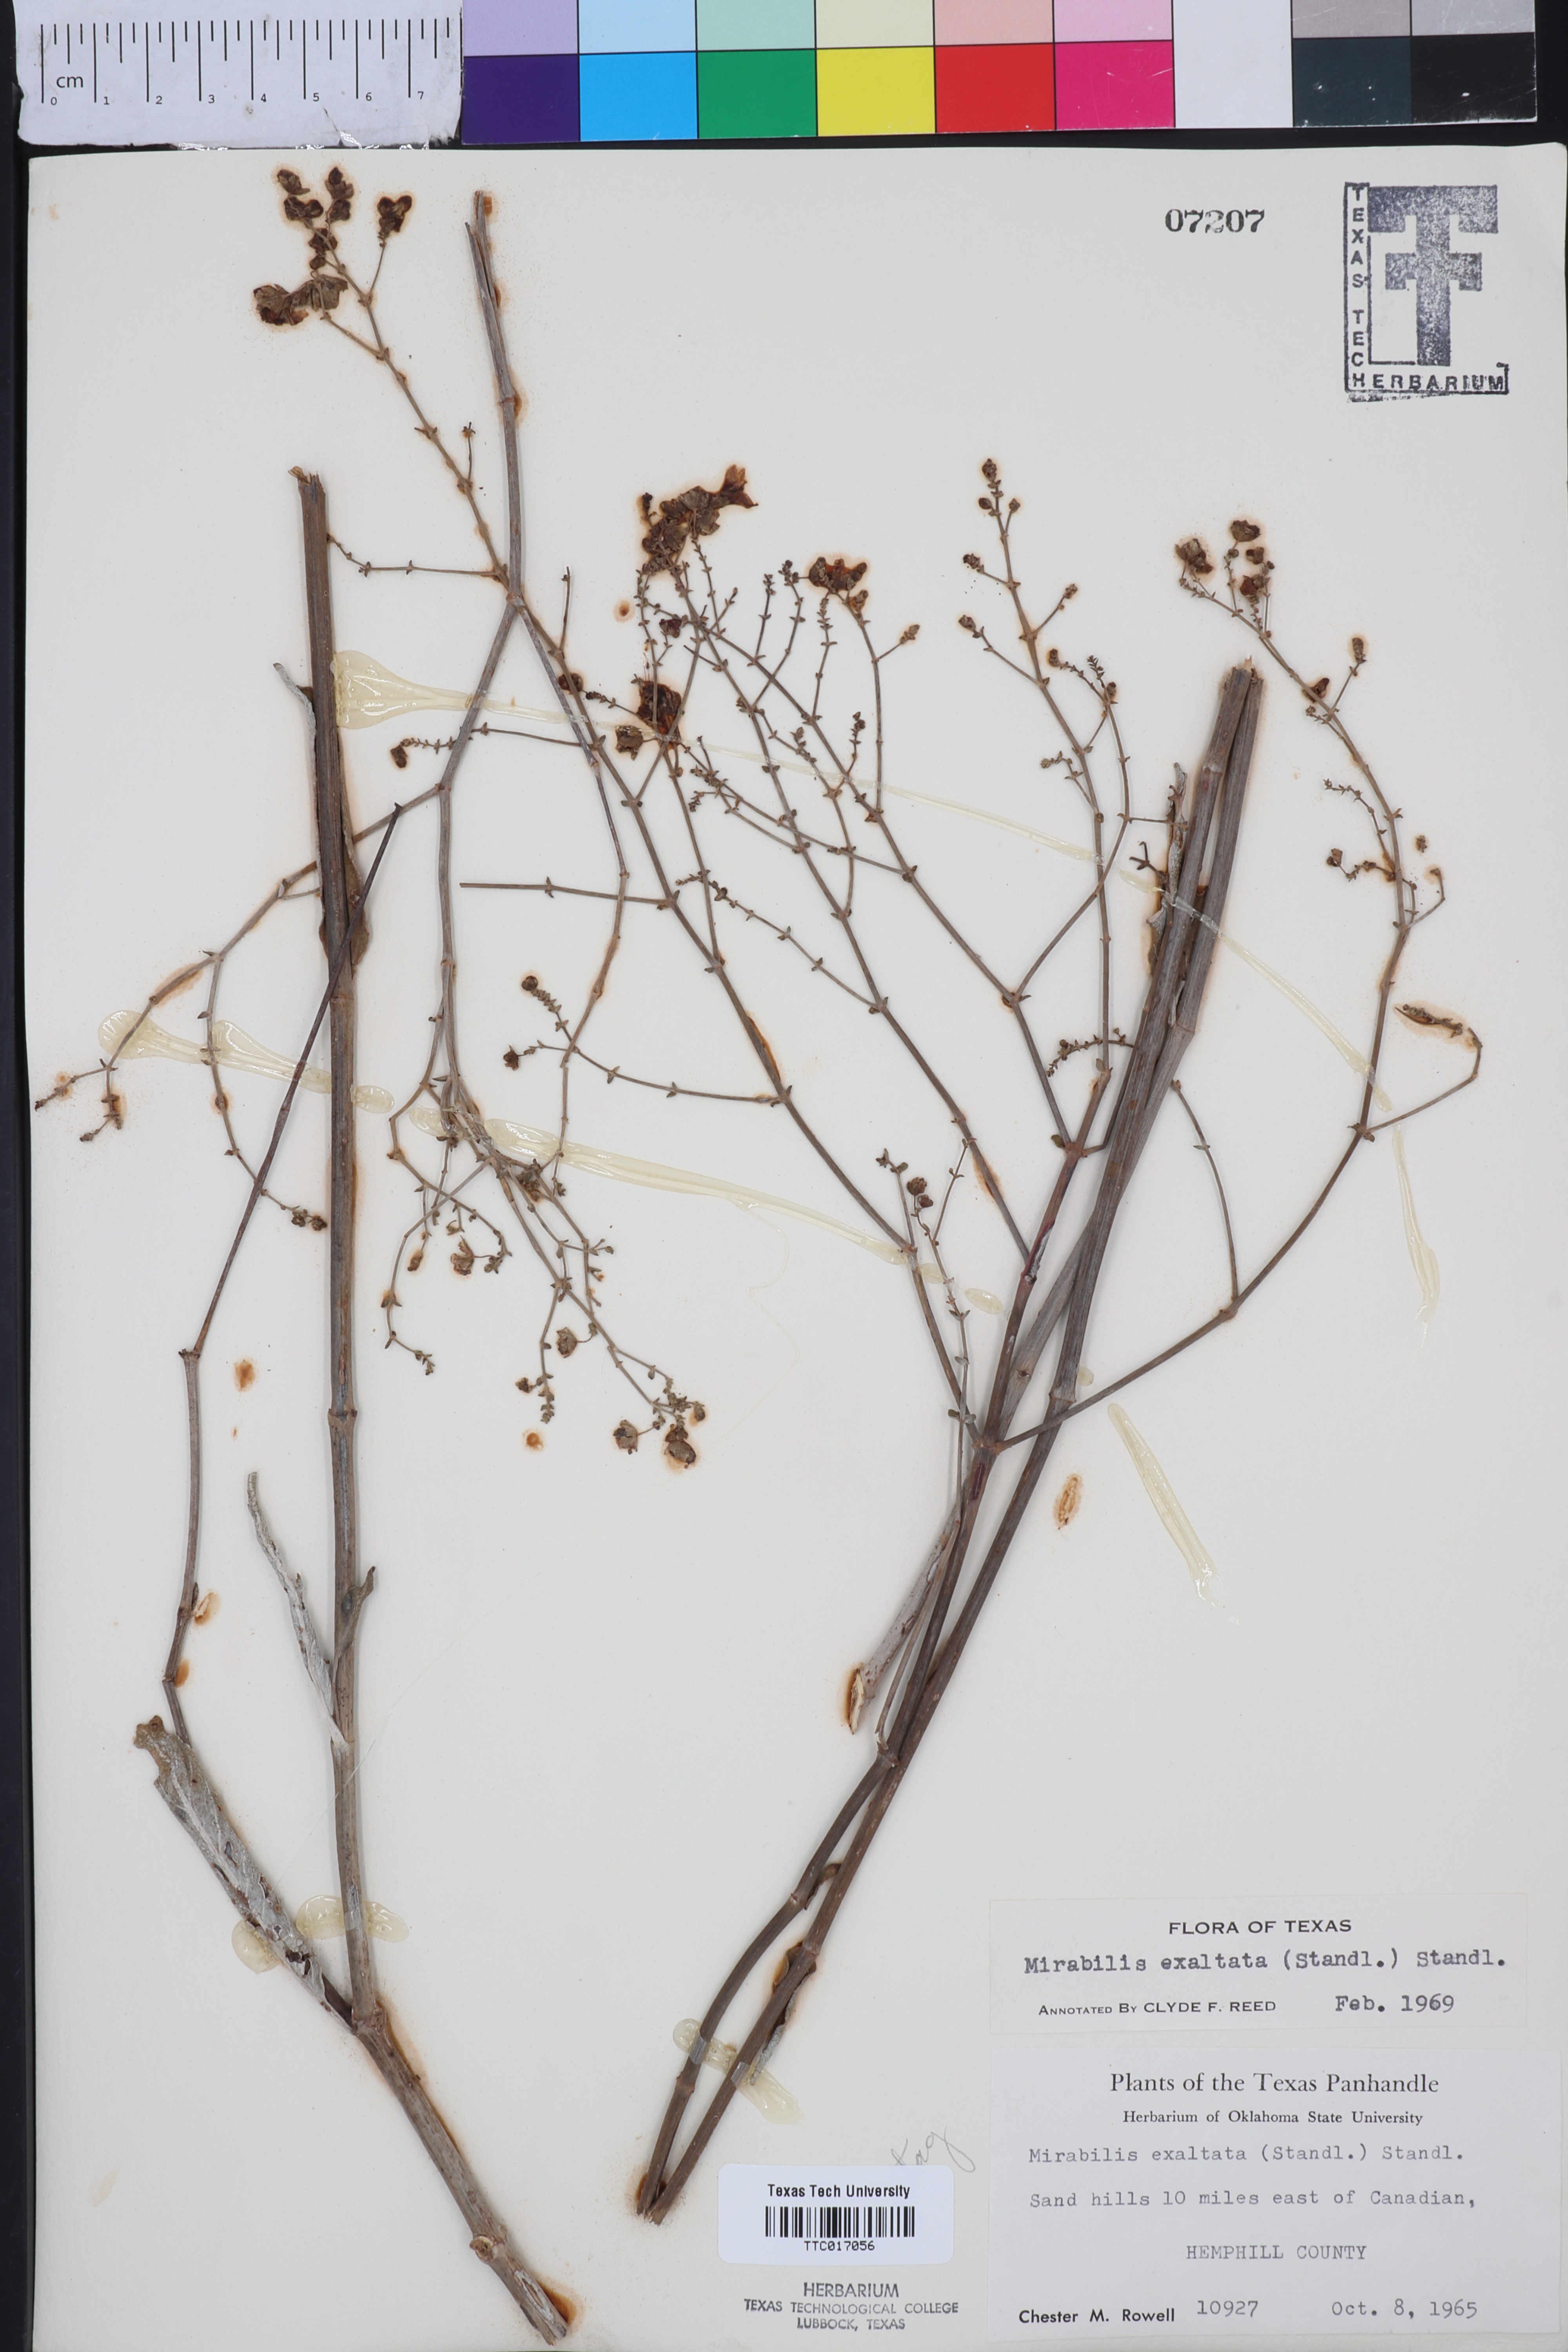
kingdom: Plantae
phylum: Tracheophyta
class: Magnoliopsida
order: Caryophyllales
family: Nyctaginaceae
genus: Mirabilis
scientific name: Mirabilis glabra
